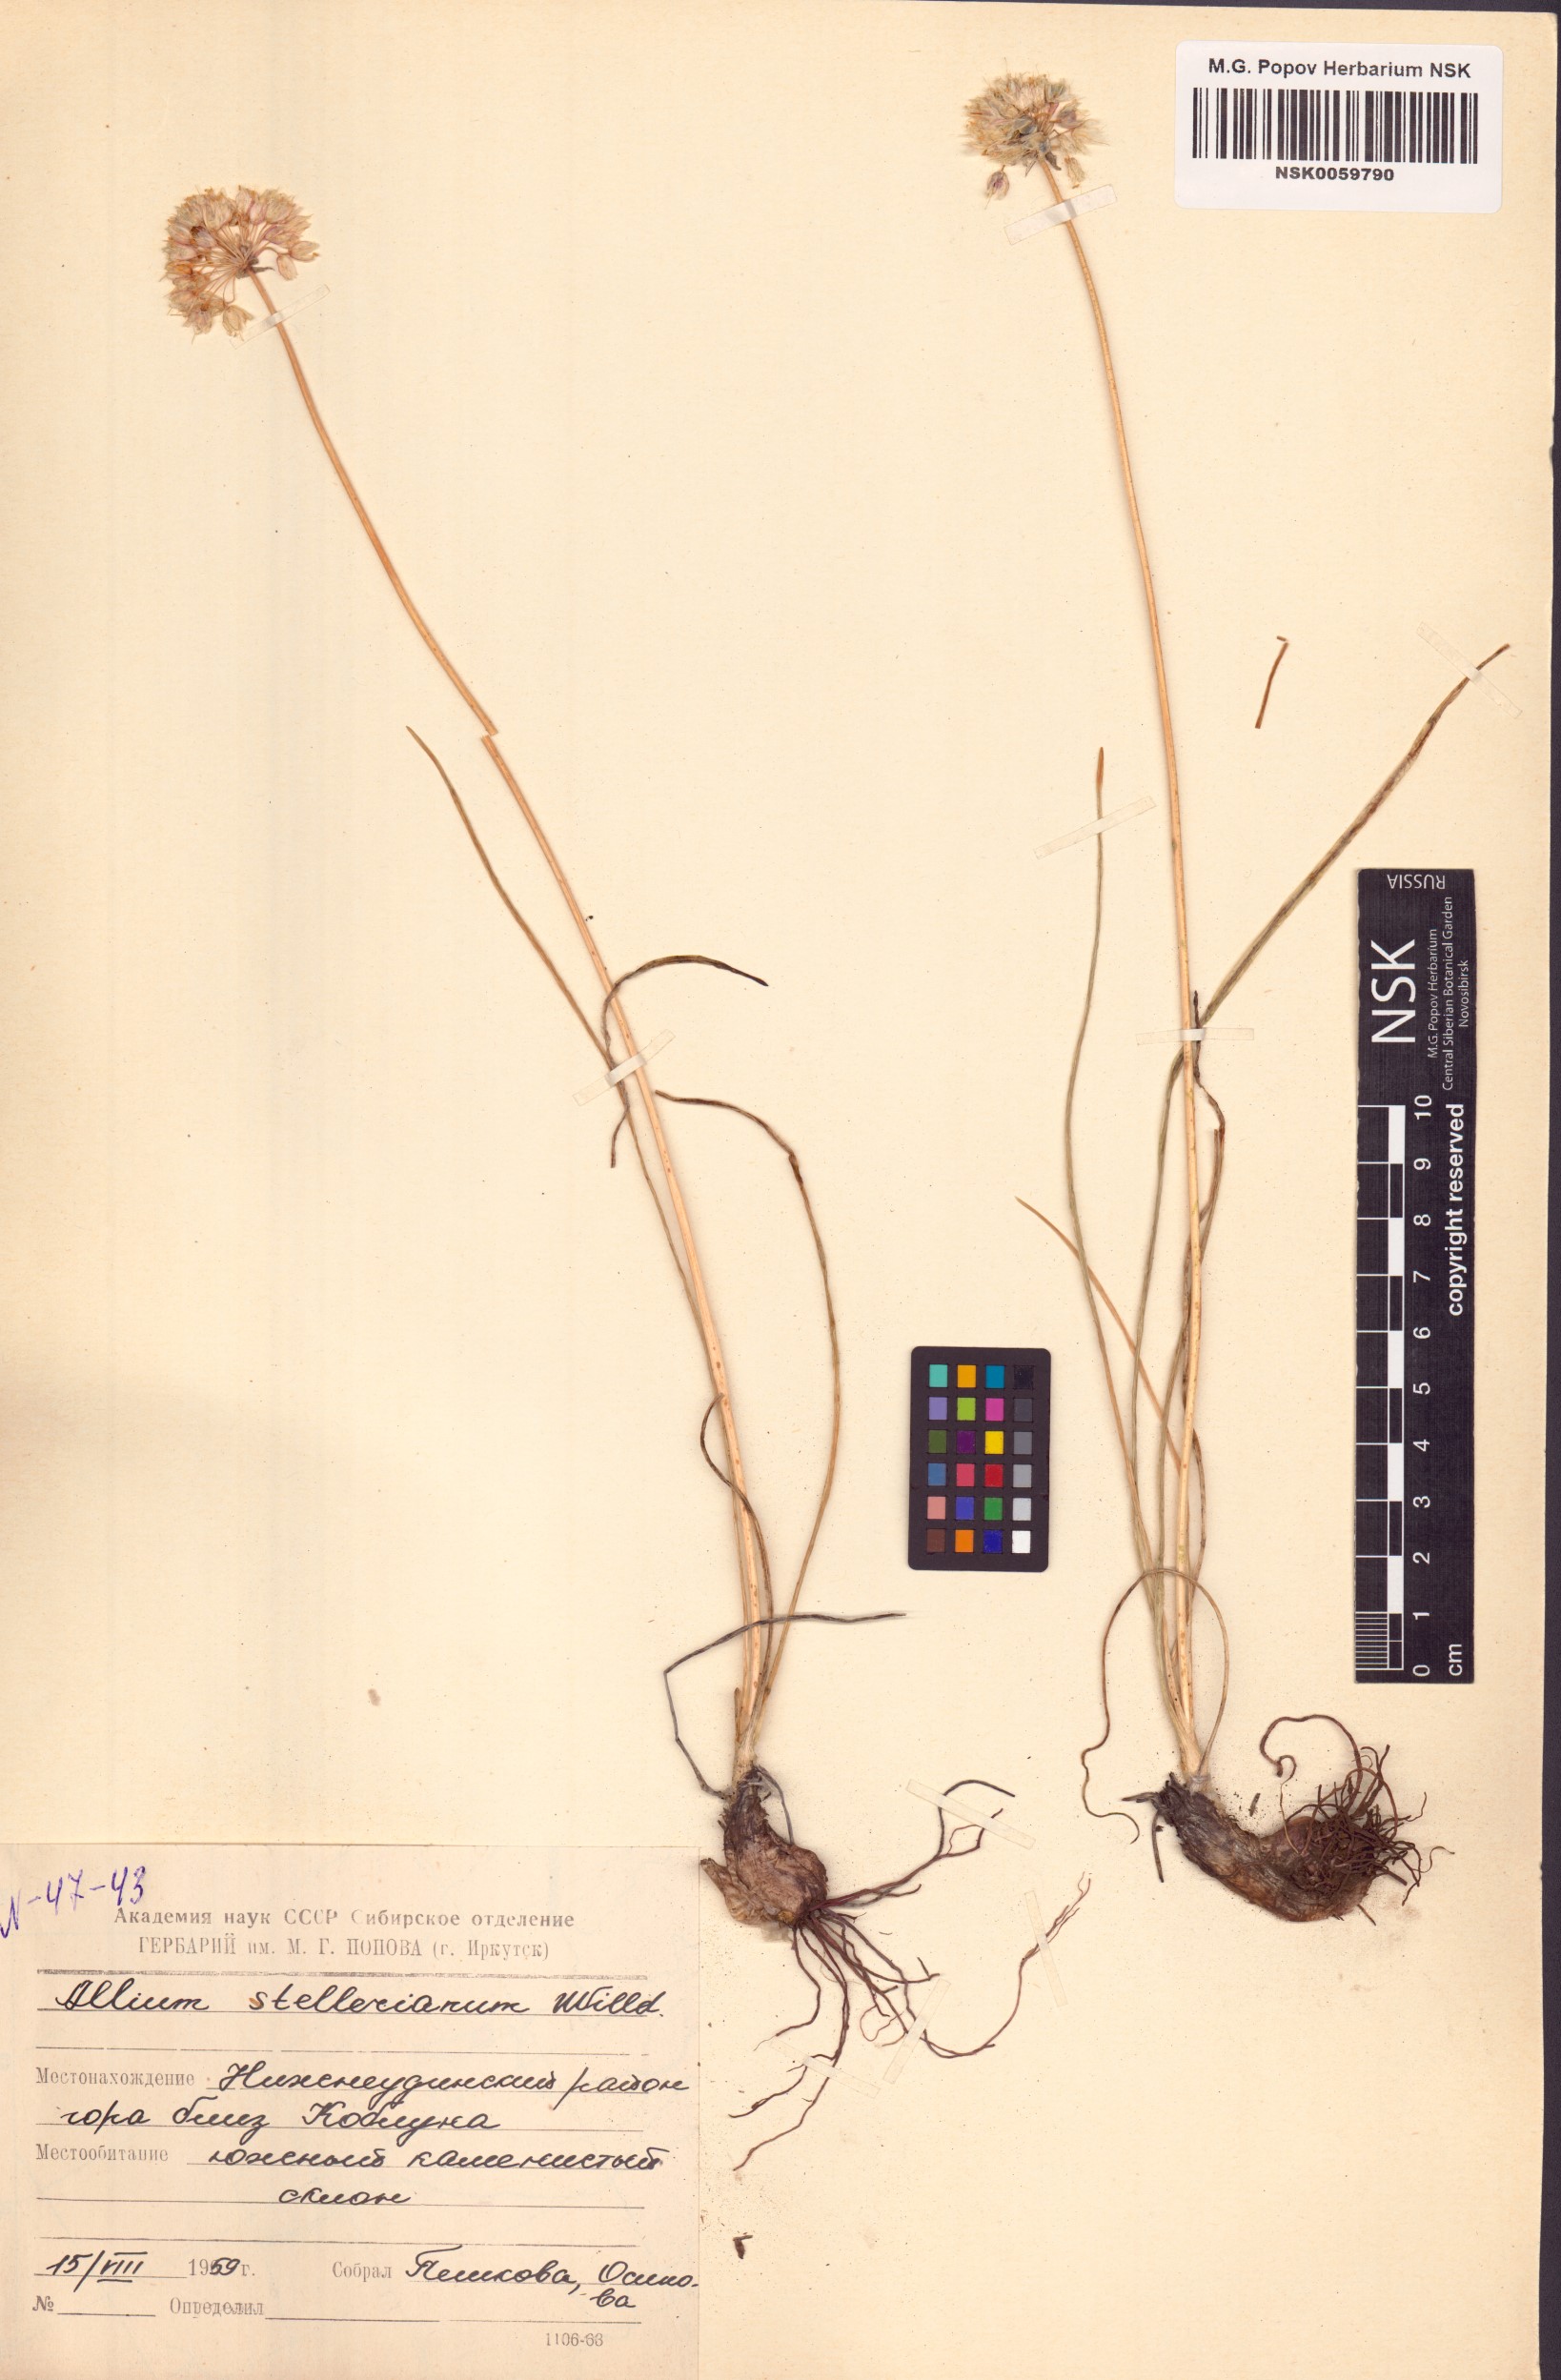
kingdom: Plantae
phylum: Tracheophyta
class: Liliopsida
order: Asparagales
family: Amaryllidaceae
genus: Allium
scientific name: Allium stellerianum
